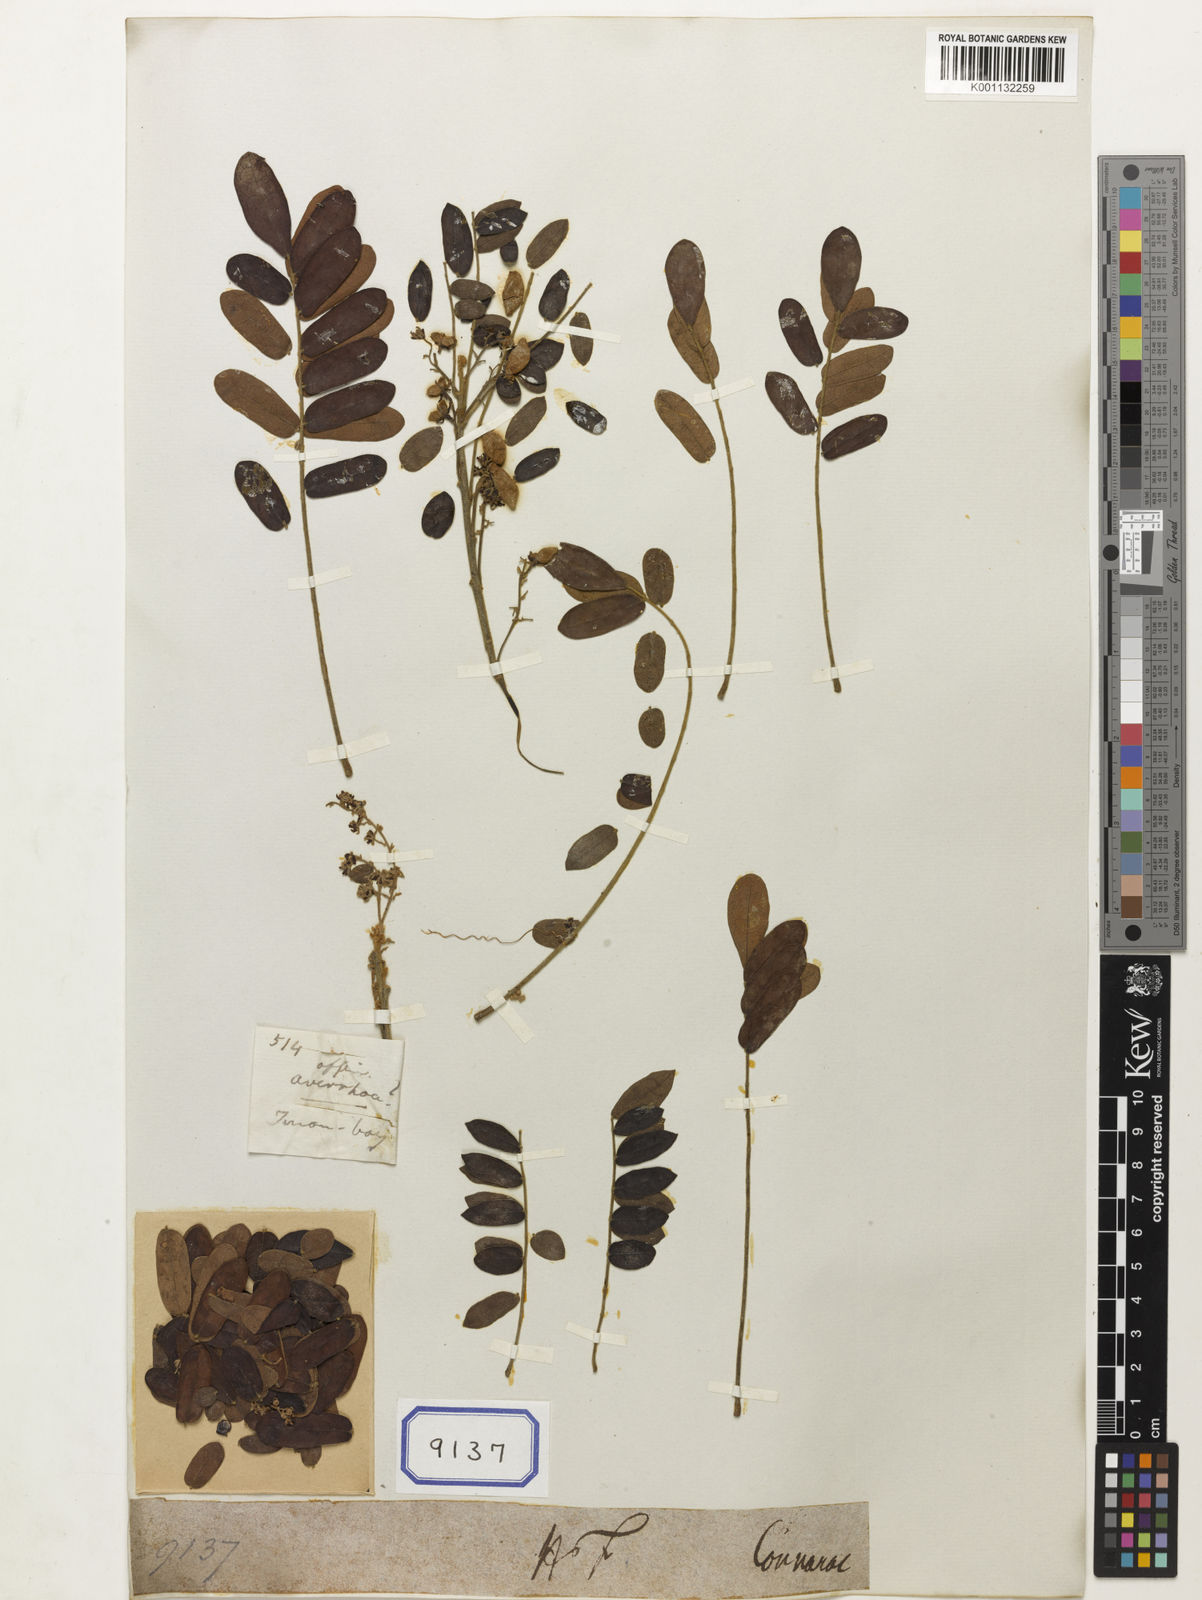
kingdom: Plantae
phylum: Tracheophyta
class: Magnoliopsida
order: Oxalidales
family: Connaraceae
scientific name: Connaraceae
